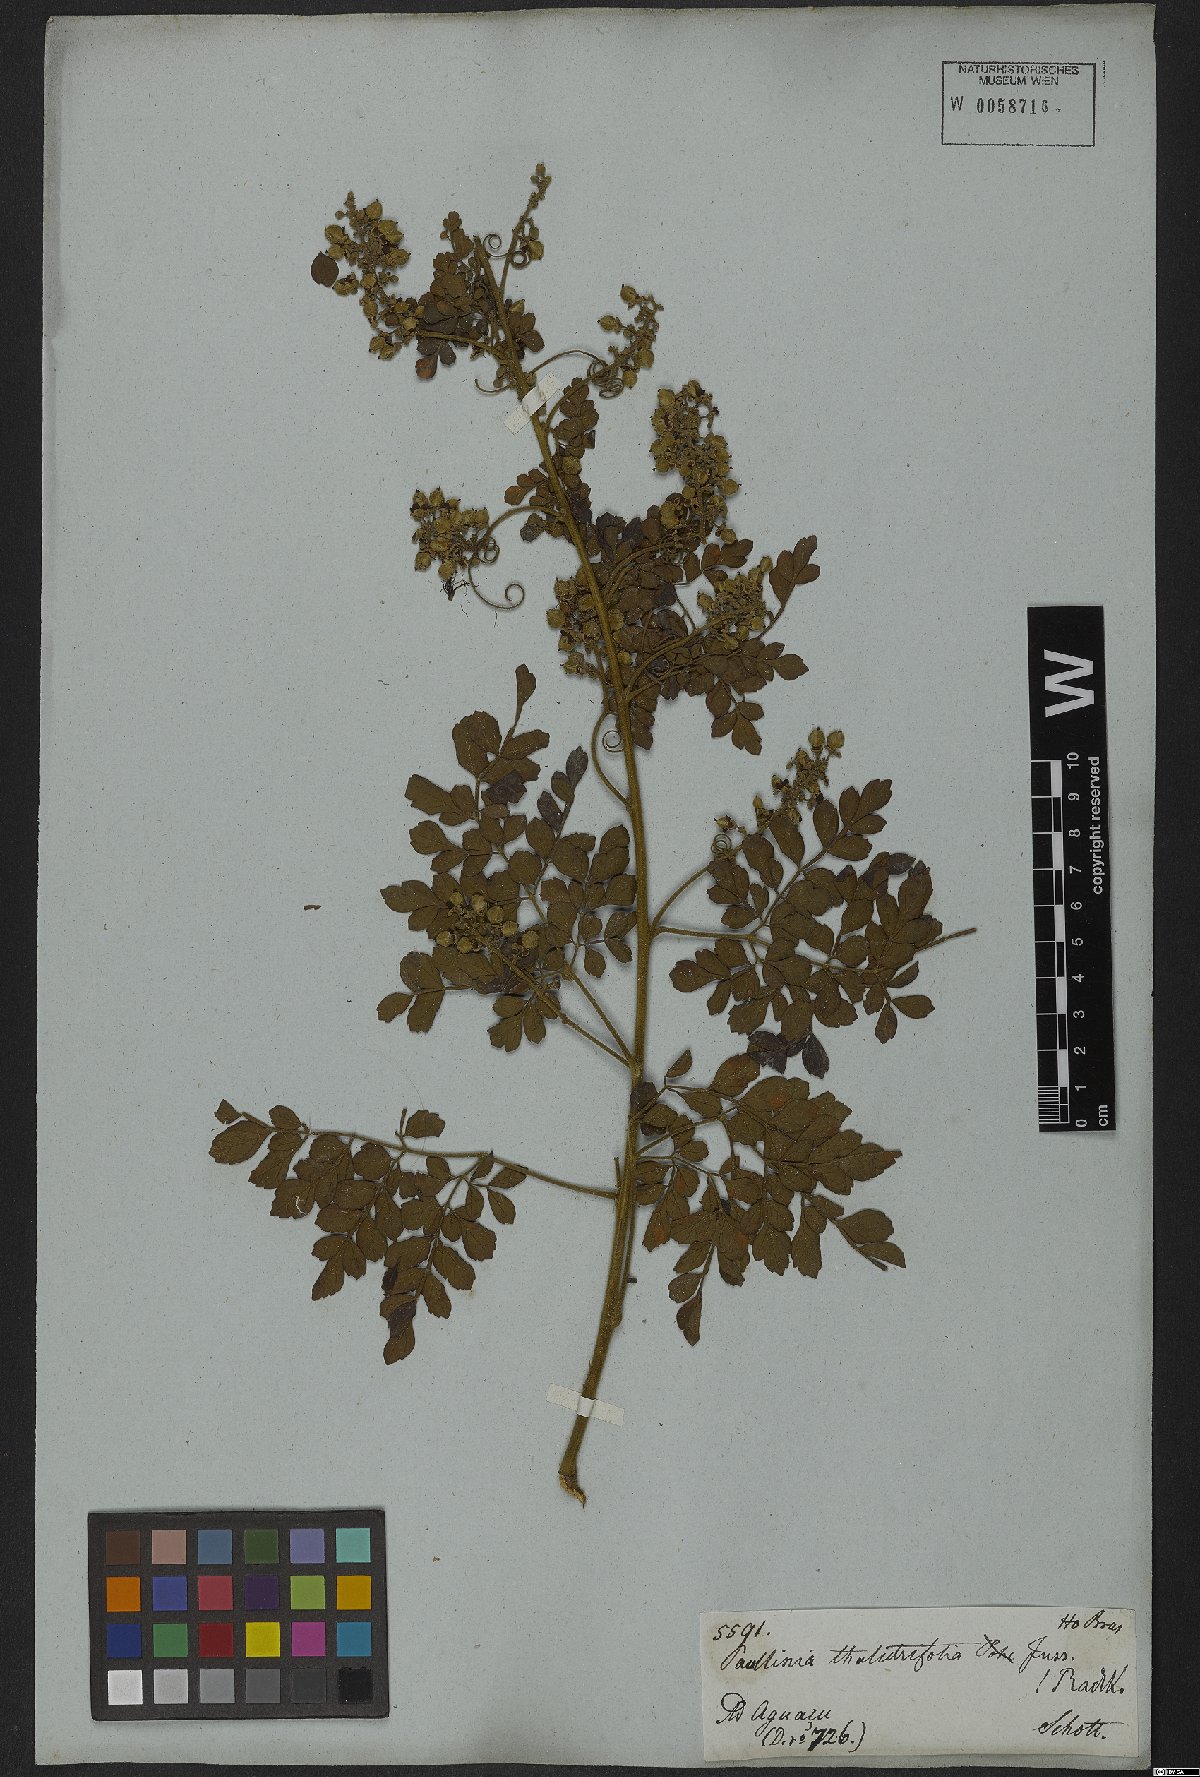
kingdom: Plantae
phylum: Tracheophyta
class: Magnoliopsida
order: Sapindales
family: Sapindaceae
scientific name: Sapindaceae
